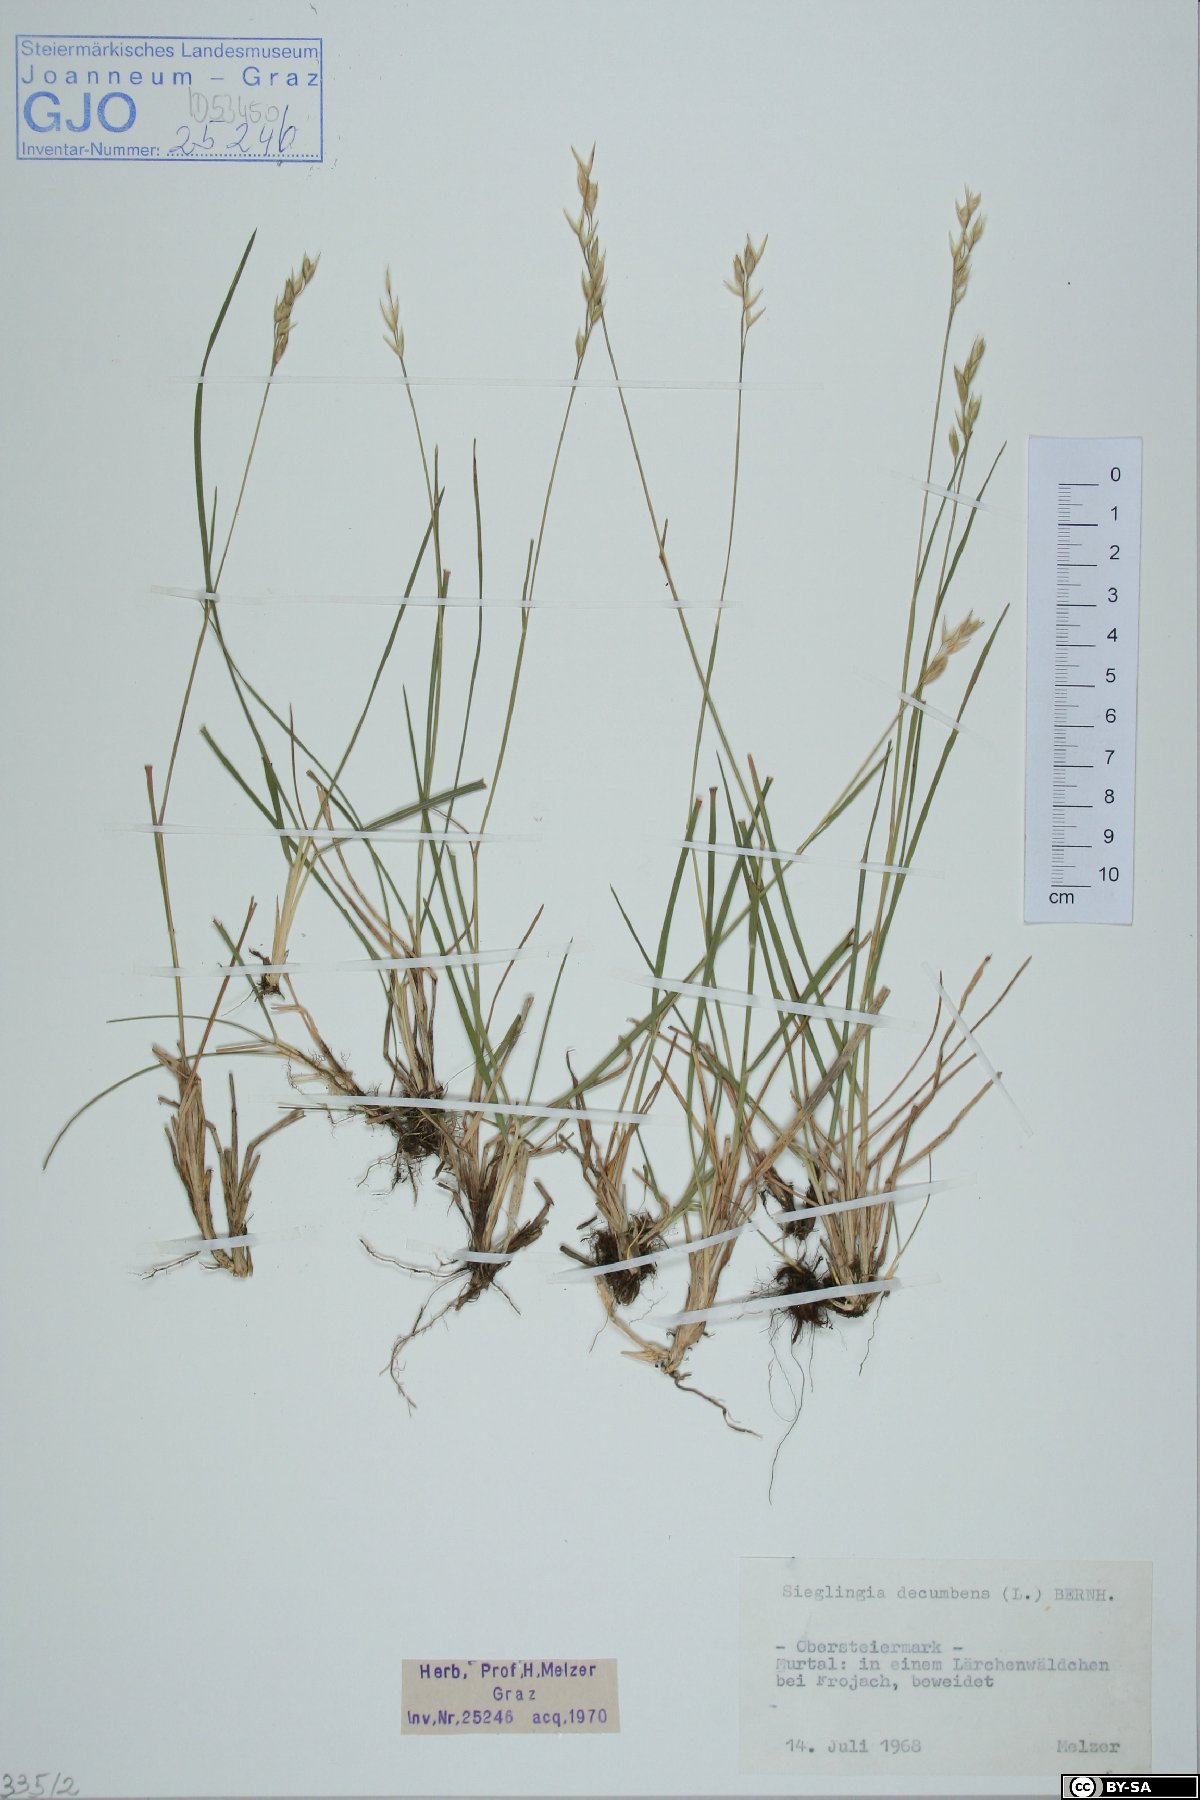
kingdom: Plantae
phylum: Tracheophyta
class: Liliopsida
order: Poales
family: Poaceae
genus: Danthonia
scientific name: Danthonia decumbens
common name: Common heathgrass
